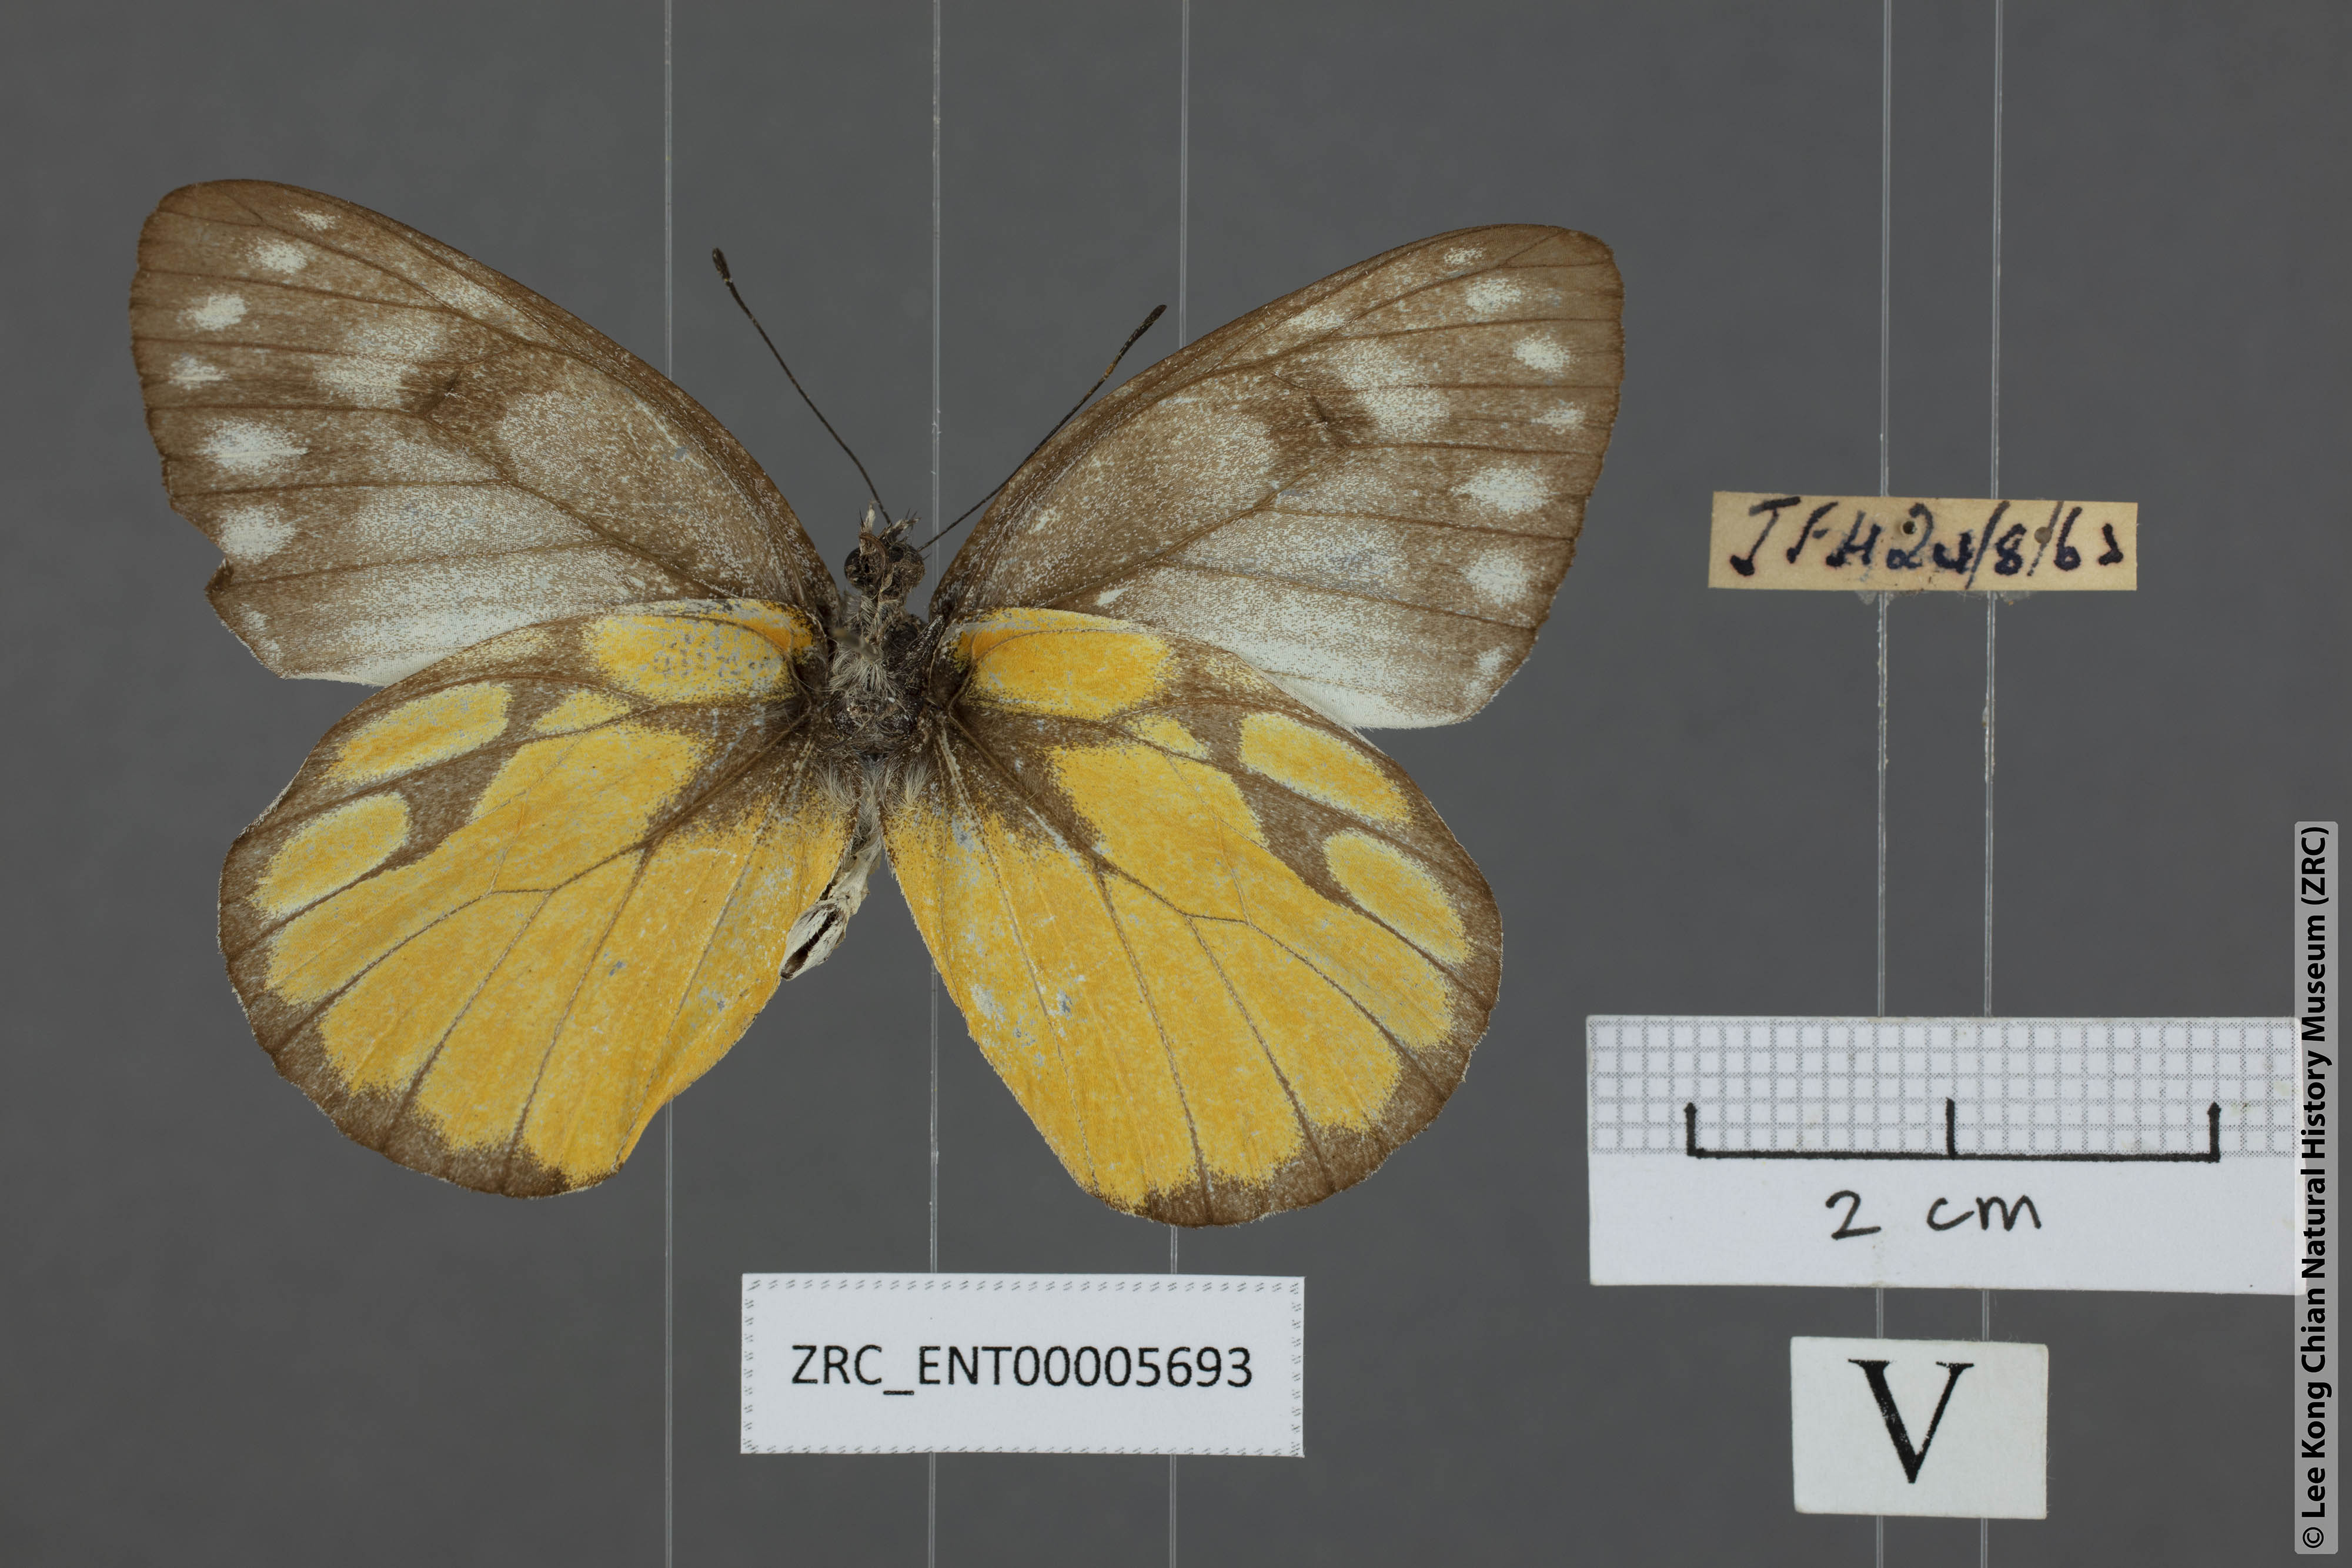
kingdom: Animalia
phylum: Arthropoda
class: Insecta
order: Lepidoptera
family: Pieridae
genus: Delias
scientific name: Delias georgina
